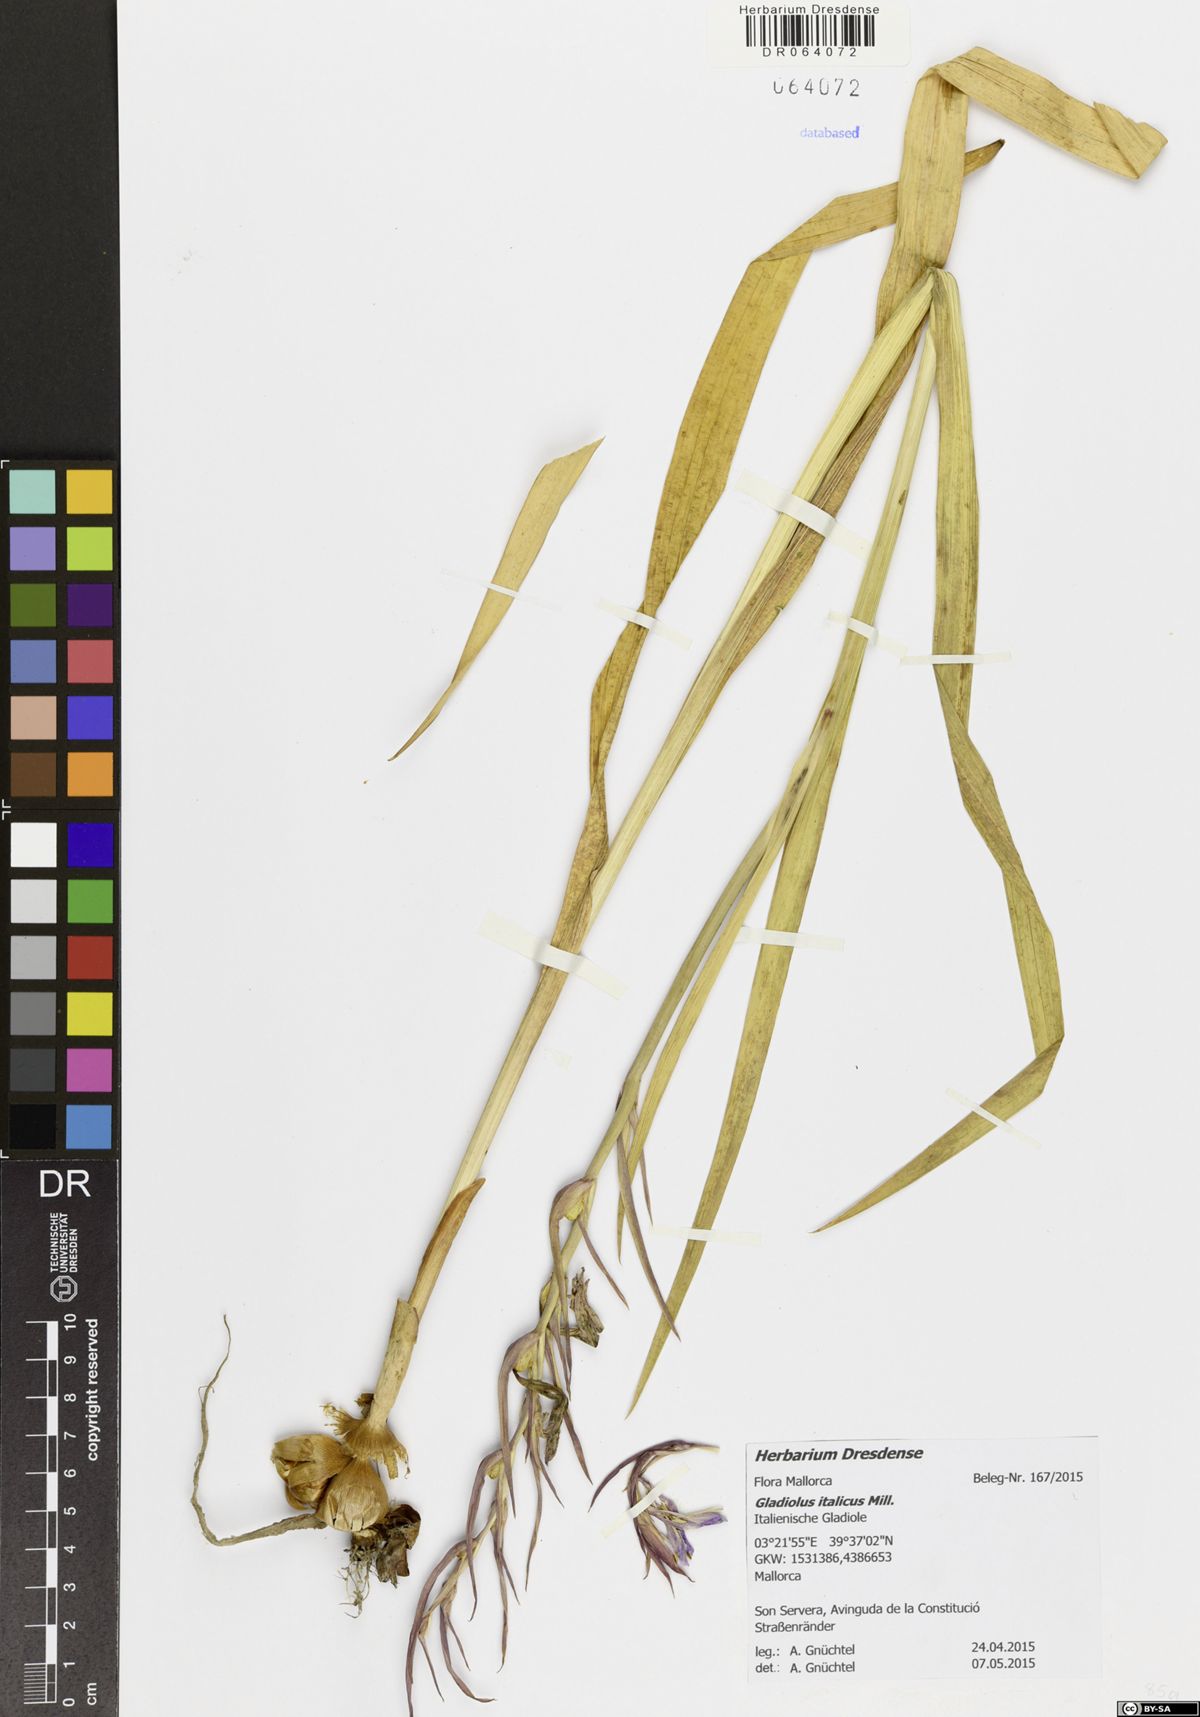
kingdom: Plantae
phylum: Tracheophyta
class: Liliopsida
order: Asparagales
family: Iridaceae
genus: Gladiolus
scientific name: Gladiolus italicus
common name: Field gladiolus
